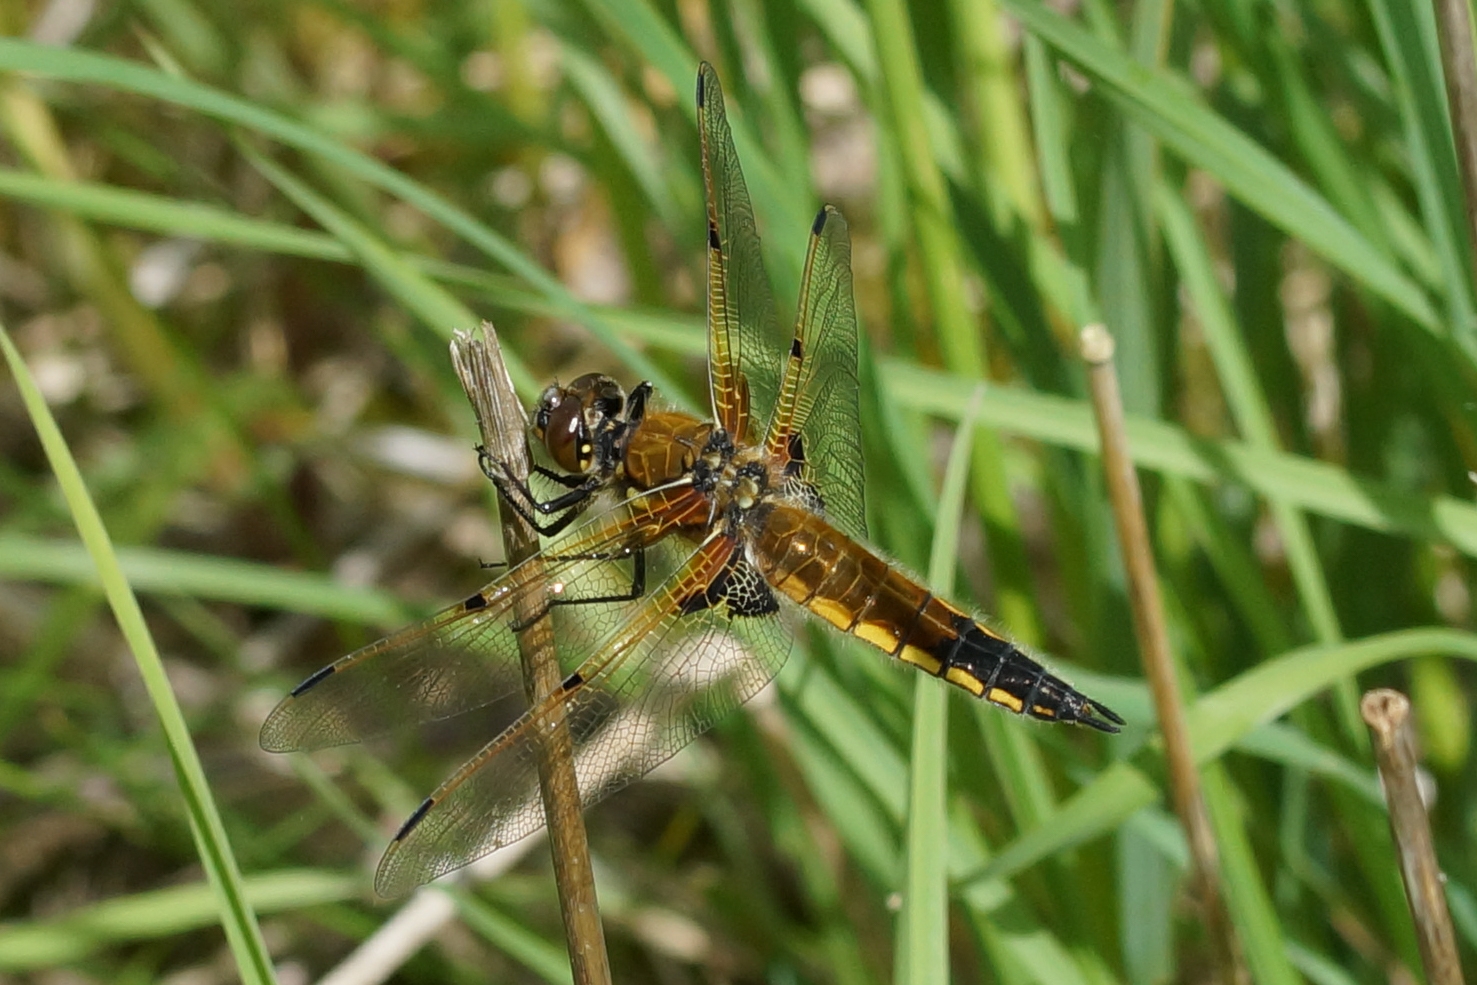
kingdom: Animalia
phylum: Arthropoda
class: Insecta
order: Odonata
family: Libellulidae
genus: Libellula
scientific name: Libellula quadrimaculata
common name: Fireplettet libel
